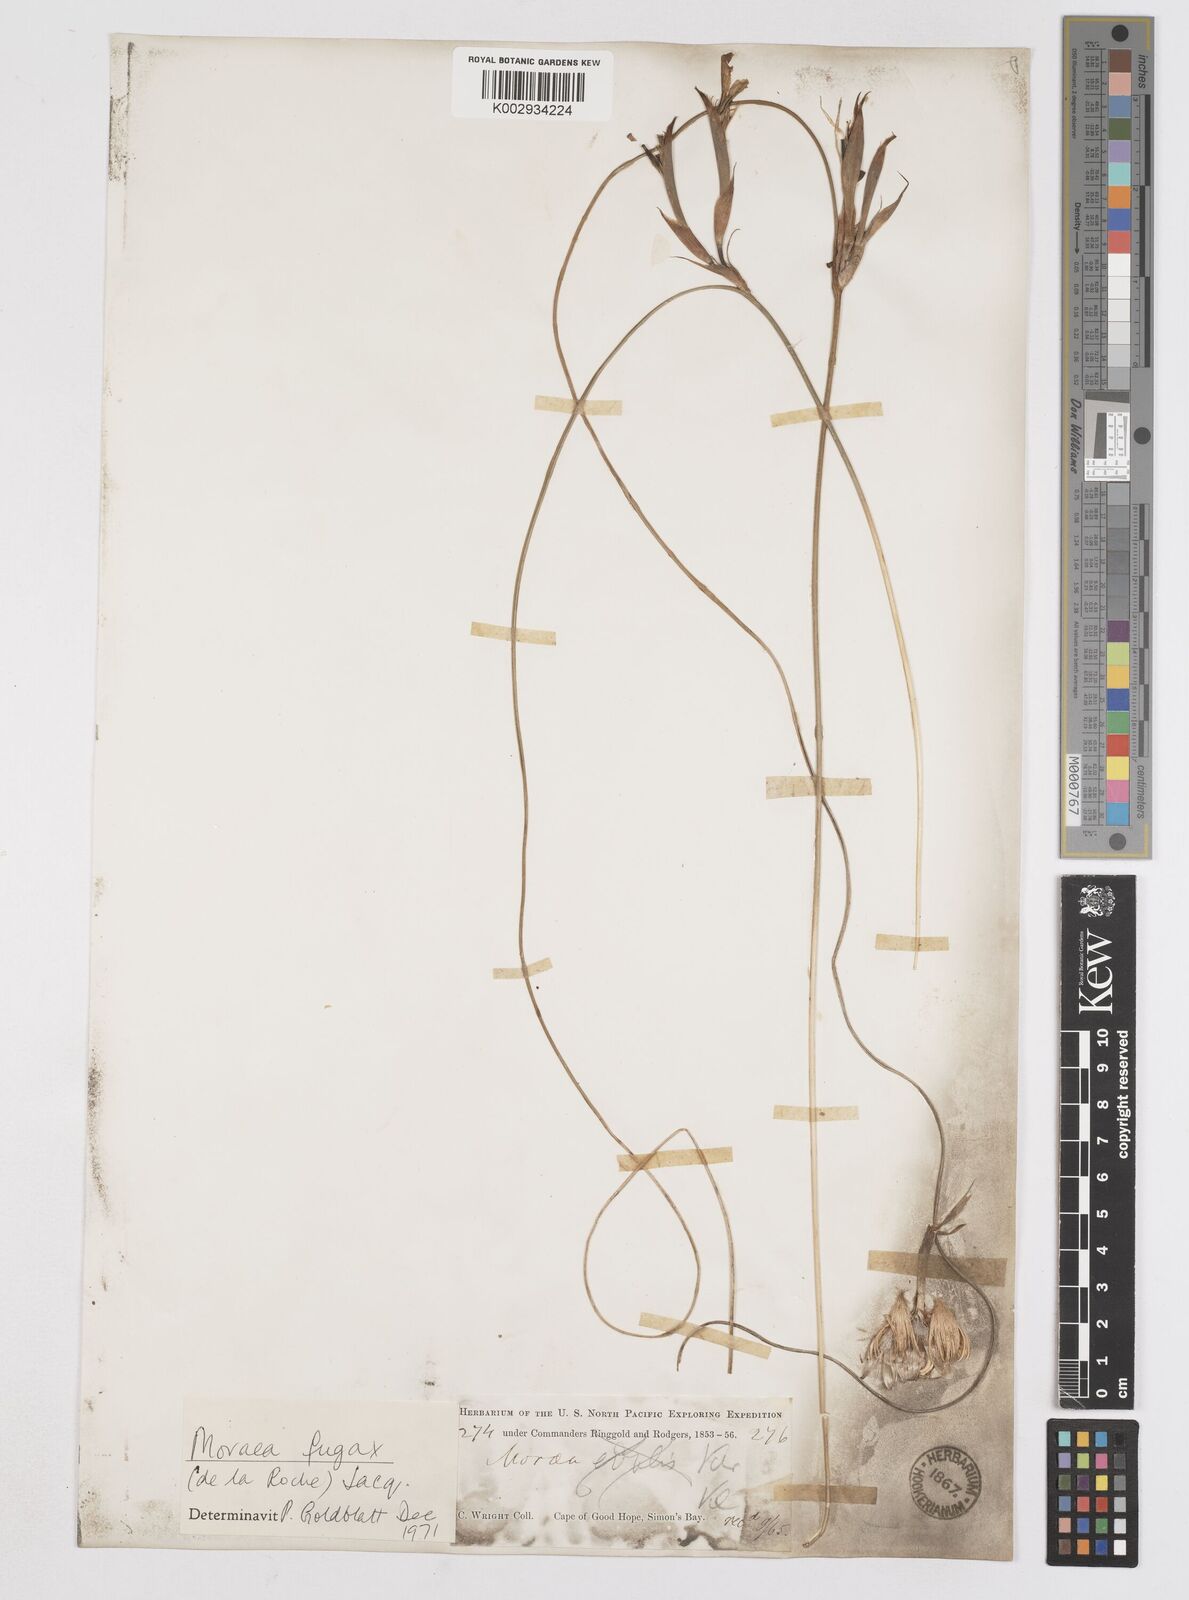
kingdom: Plantae
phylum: Tracheophyta
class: Liliopsida
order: Asparagales
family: Iridaceae
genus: Moraea
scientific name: Moraea fugax
